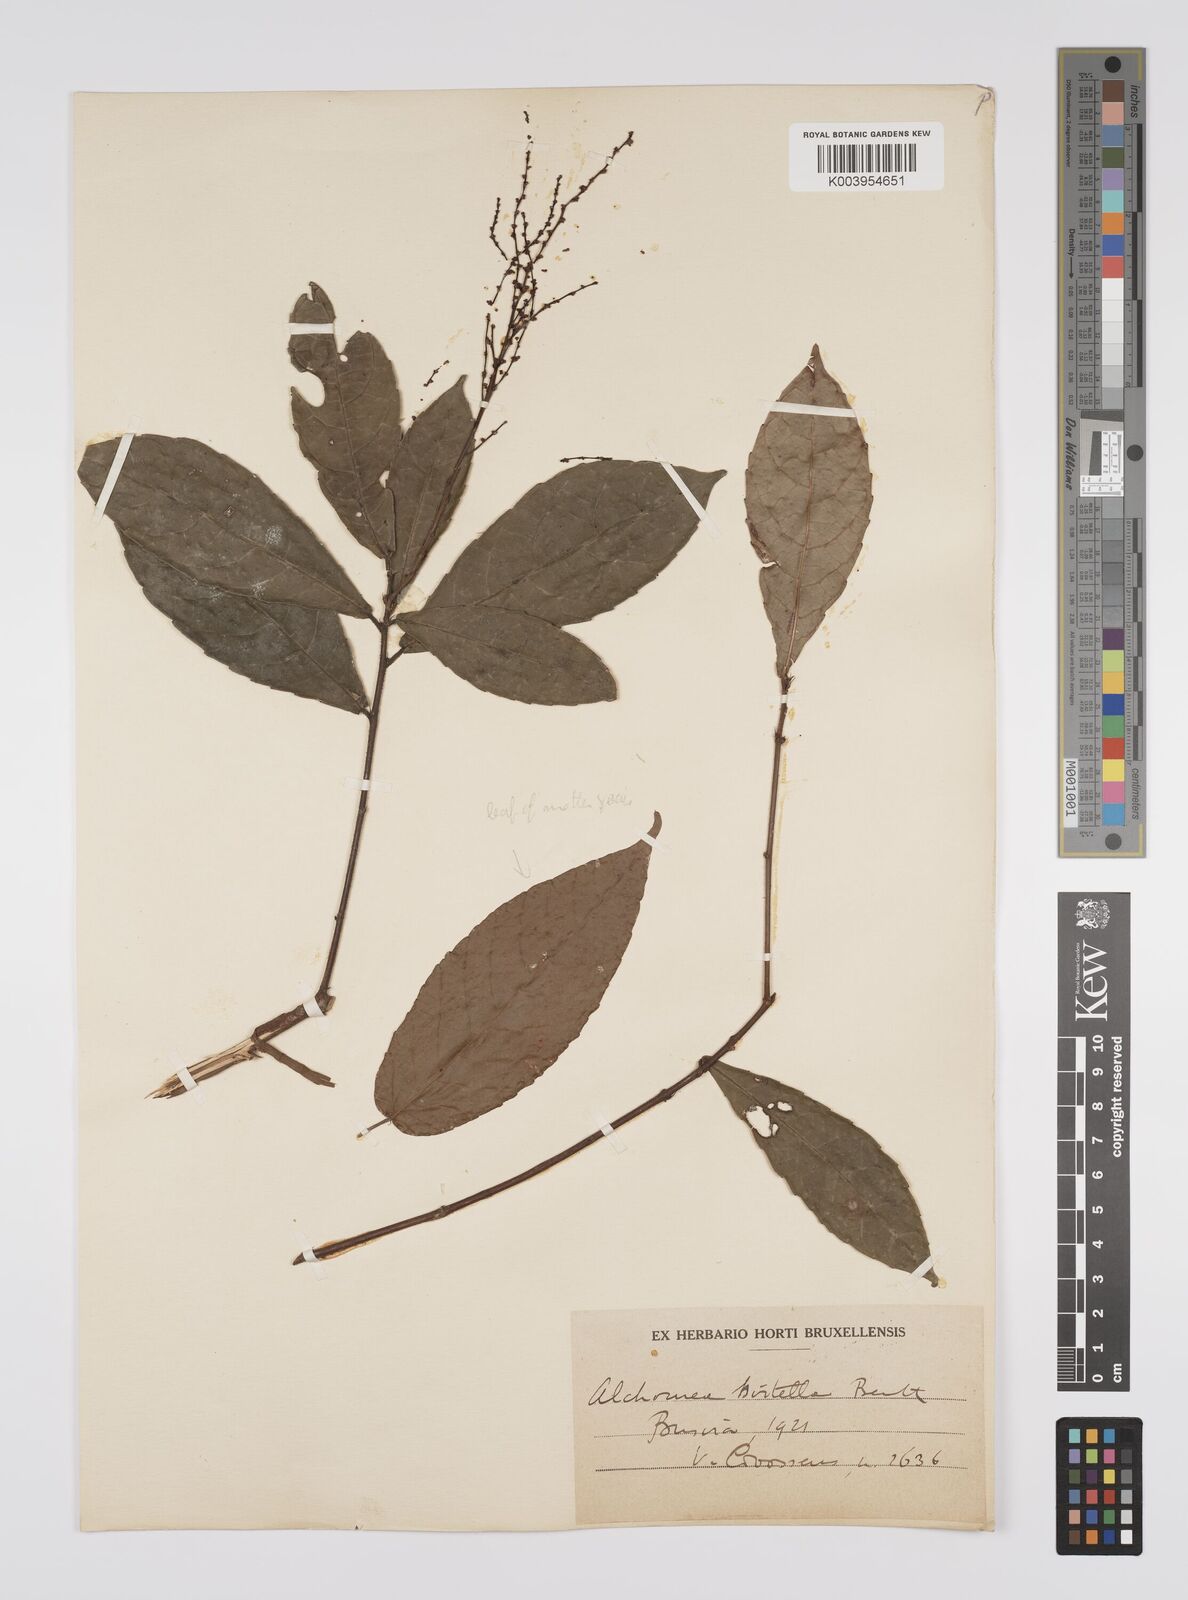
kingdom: Plantae
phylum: Tracheophyta
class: Magnoliopsida
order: Malpighiales
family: Euphorbiaceae
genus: Alchornea
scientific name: Alchornea hirtella
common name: Forest bead-string
